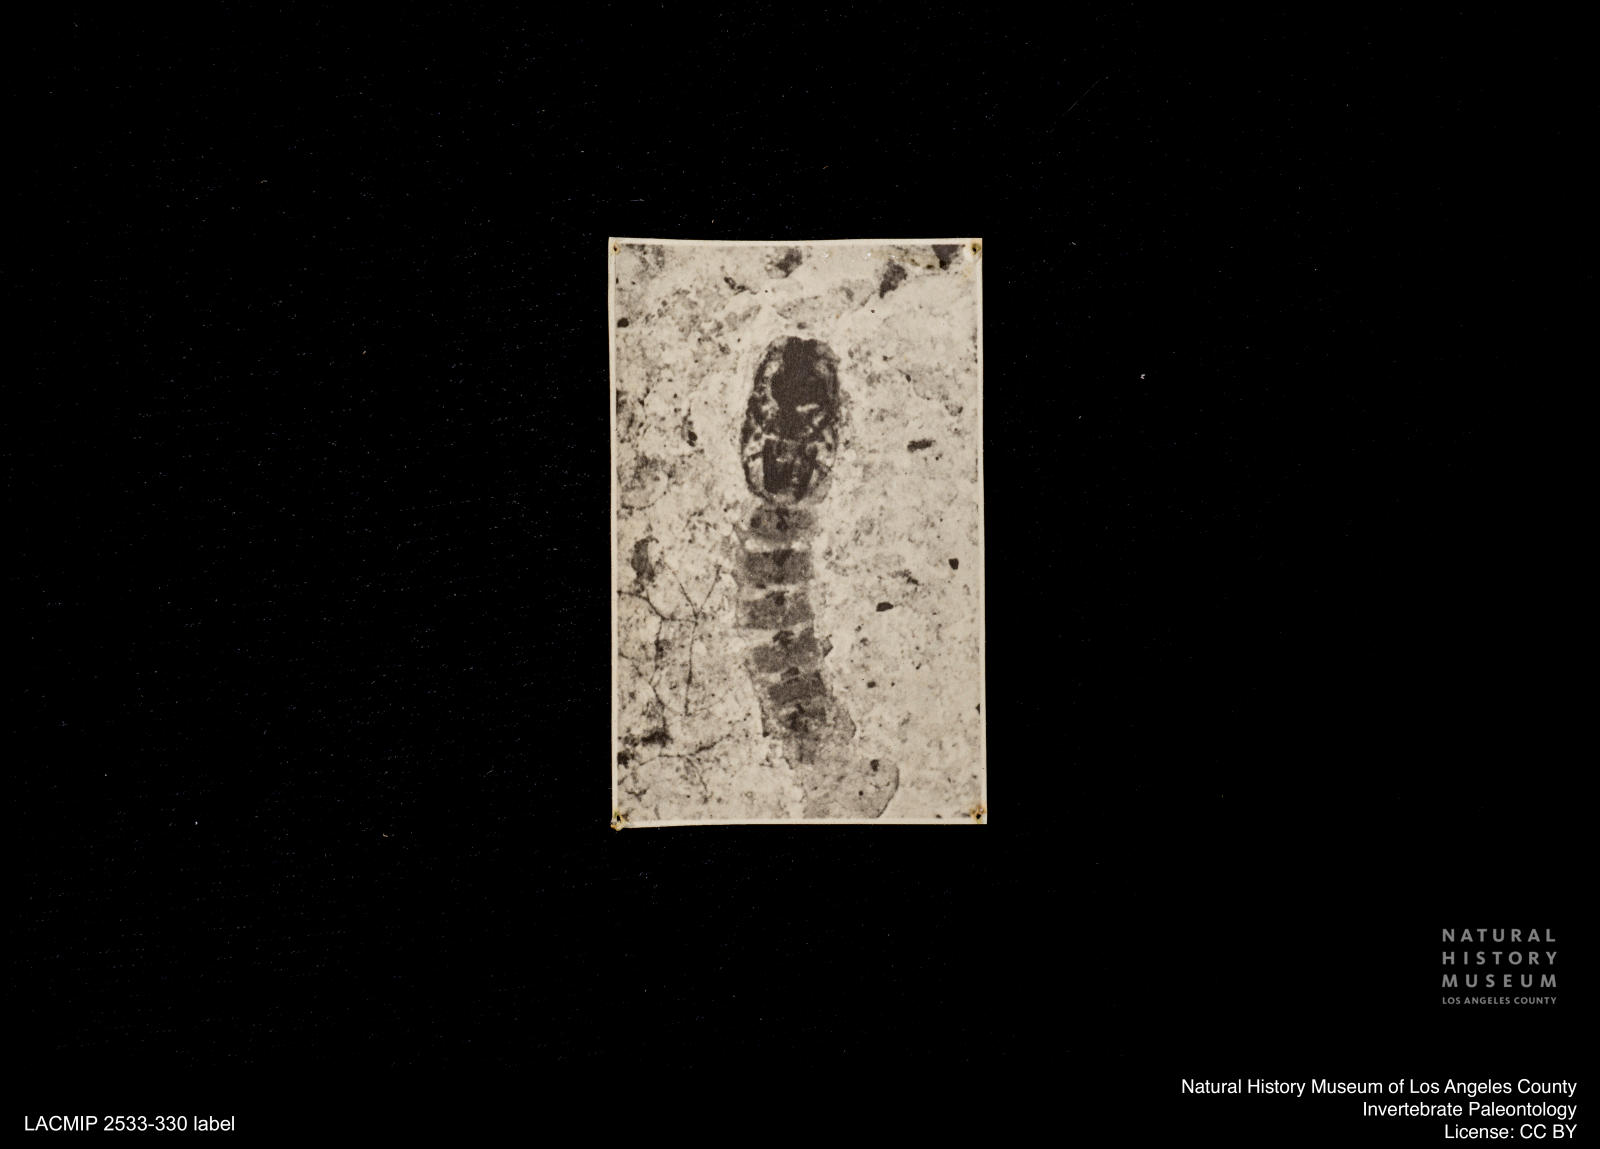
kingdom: Animalia
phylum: Arthropoda
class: Insecta
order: Diptera
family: Ceratopogonidae
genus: Ceratopogon
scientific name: Ceratopogon
